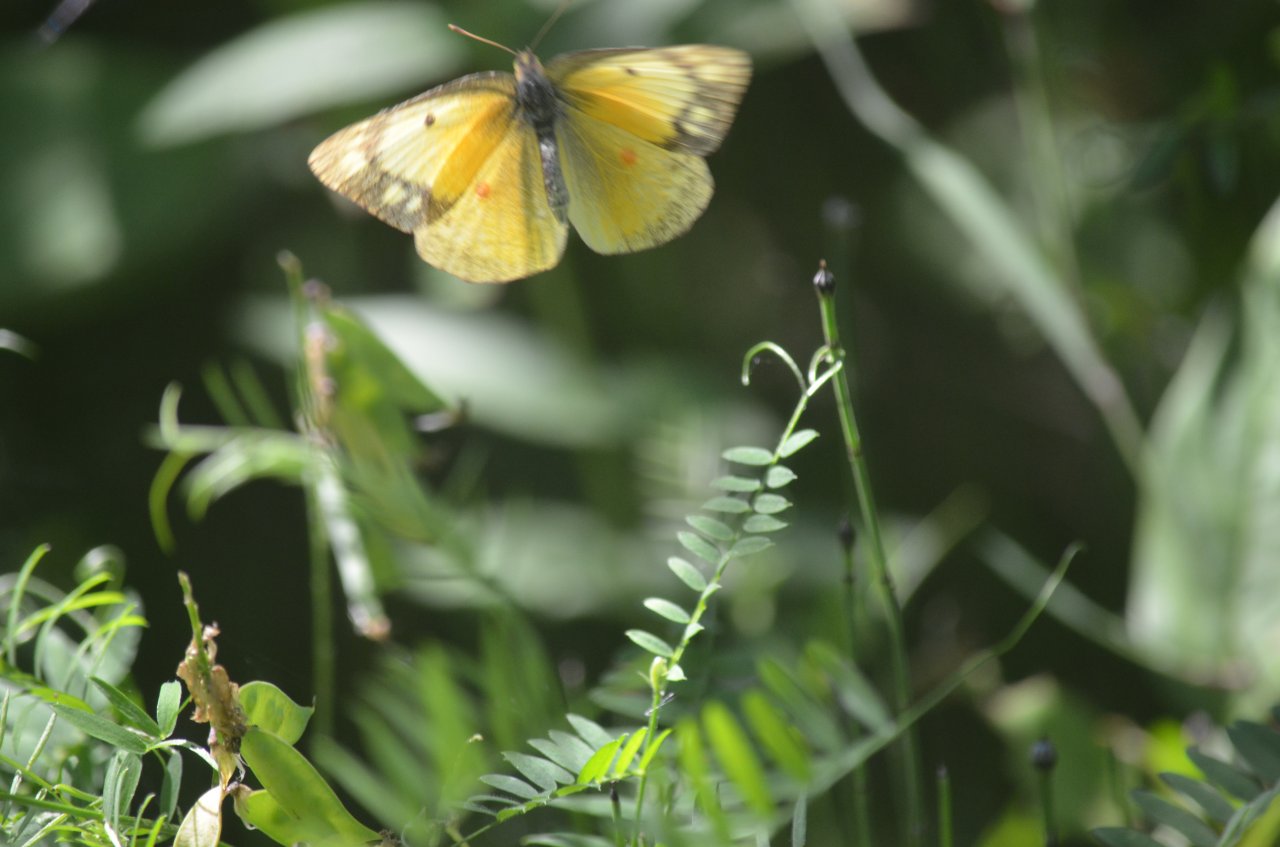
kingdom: Animalia
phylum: Arthropoda
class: Insecta
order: Lepidoptera
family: Pieridae
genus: Colias
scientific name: Colias eurytheme
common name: Orange Sulphur
